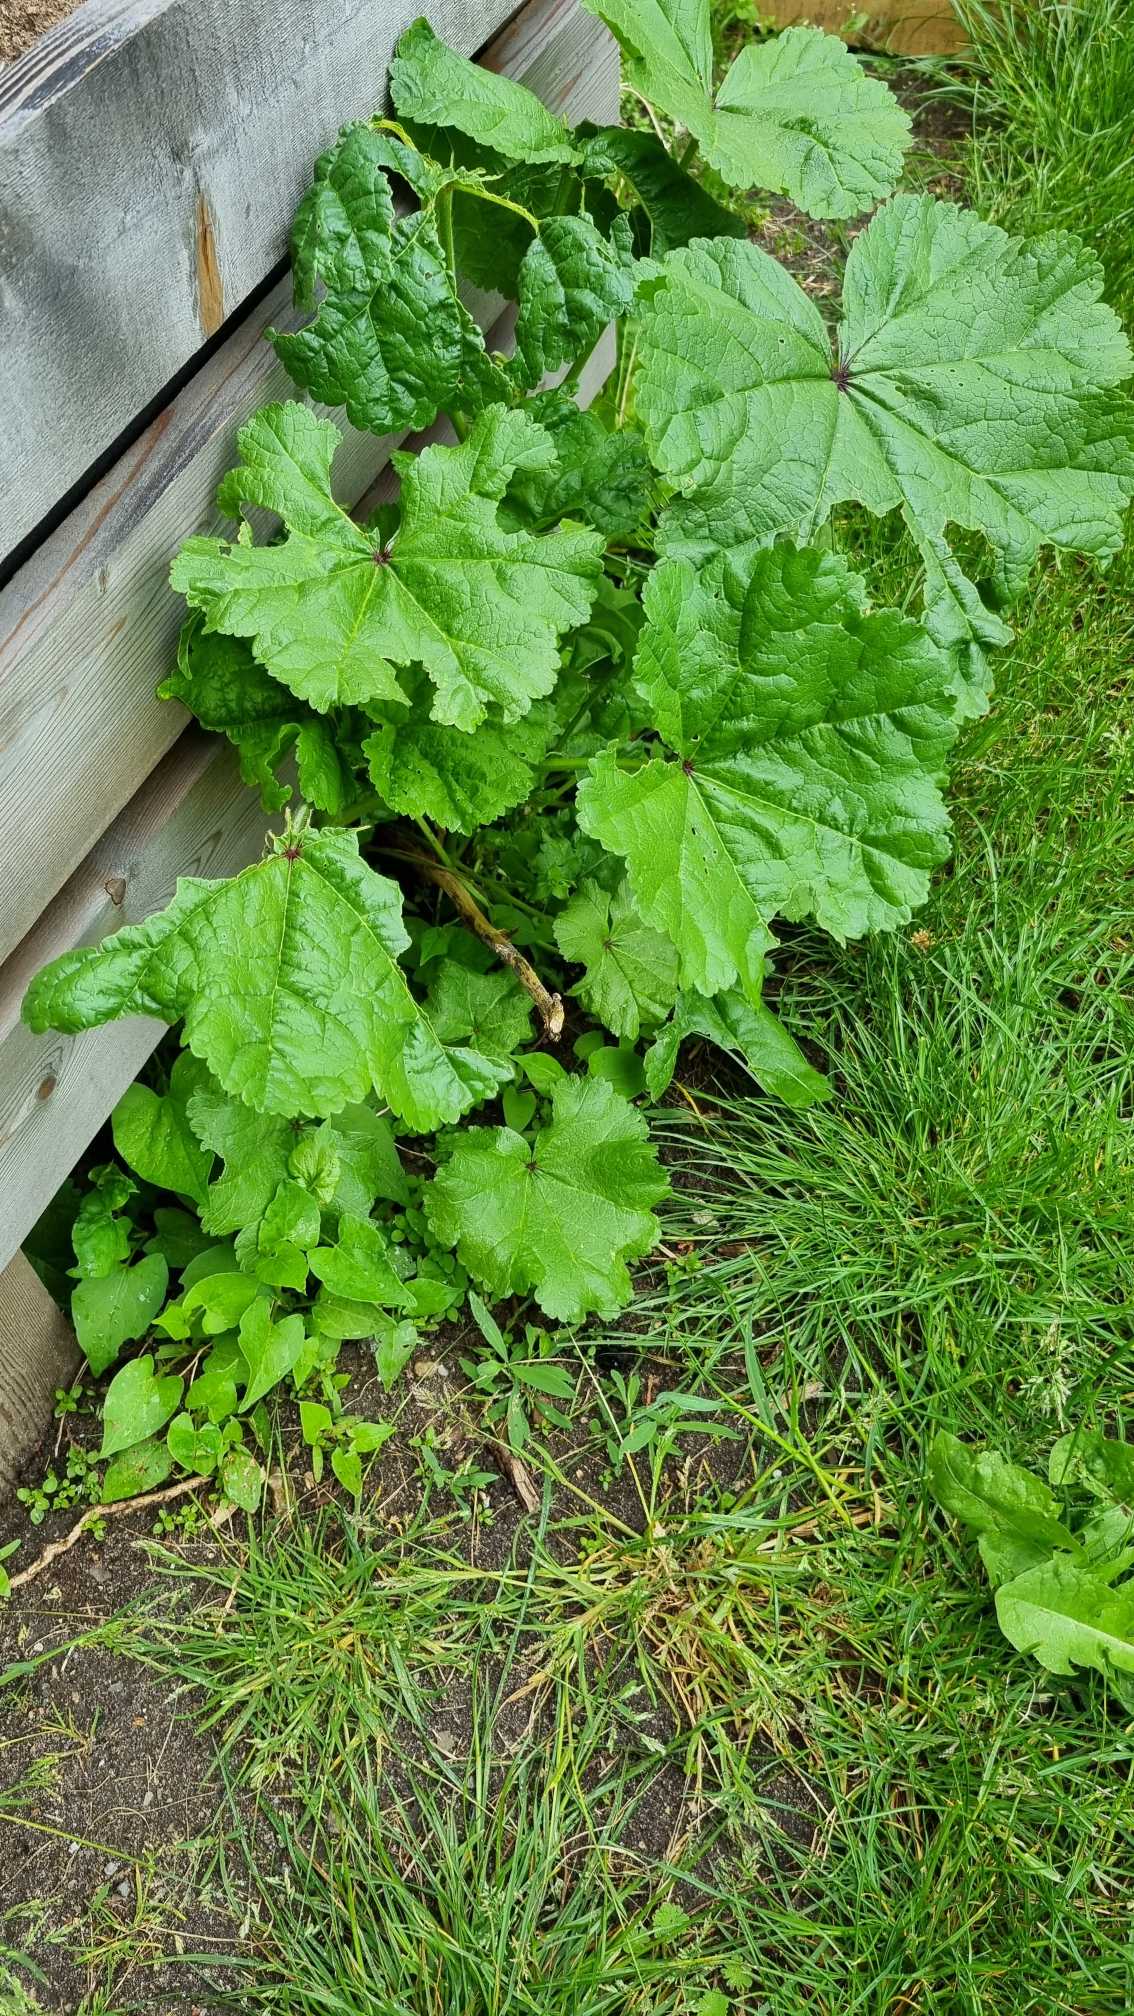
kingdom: Plantae
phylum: Tracheophyta
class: Magnoliopsida
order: Caryophyllales
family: Polygonaceae
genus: Rheum
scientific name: Rheum rhabarbarum
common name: Rabarber
